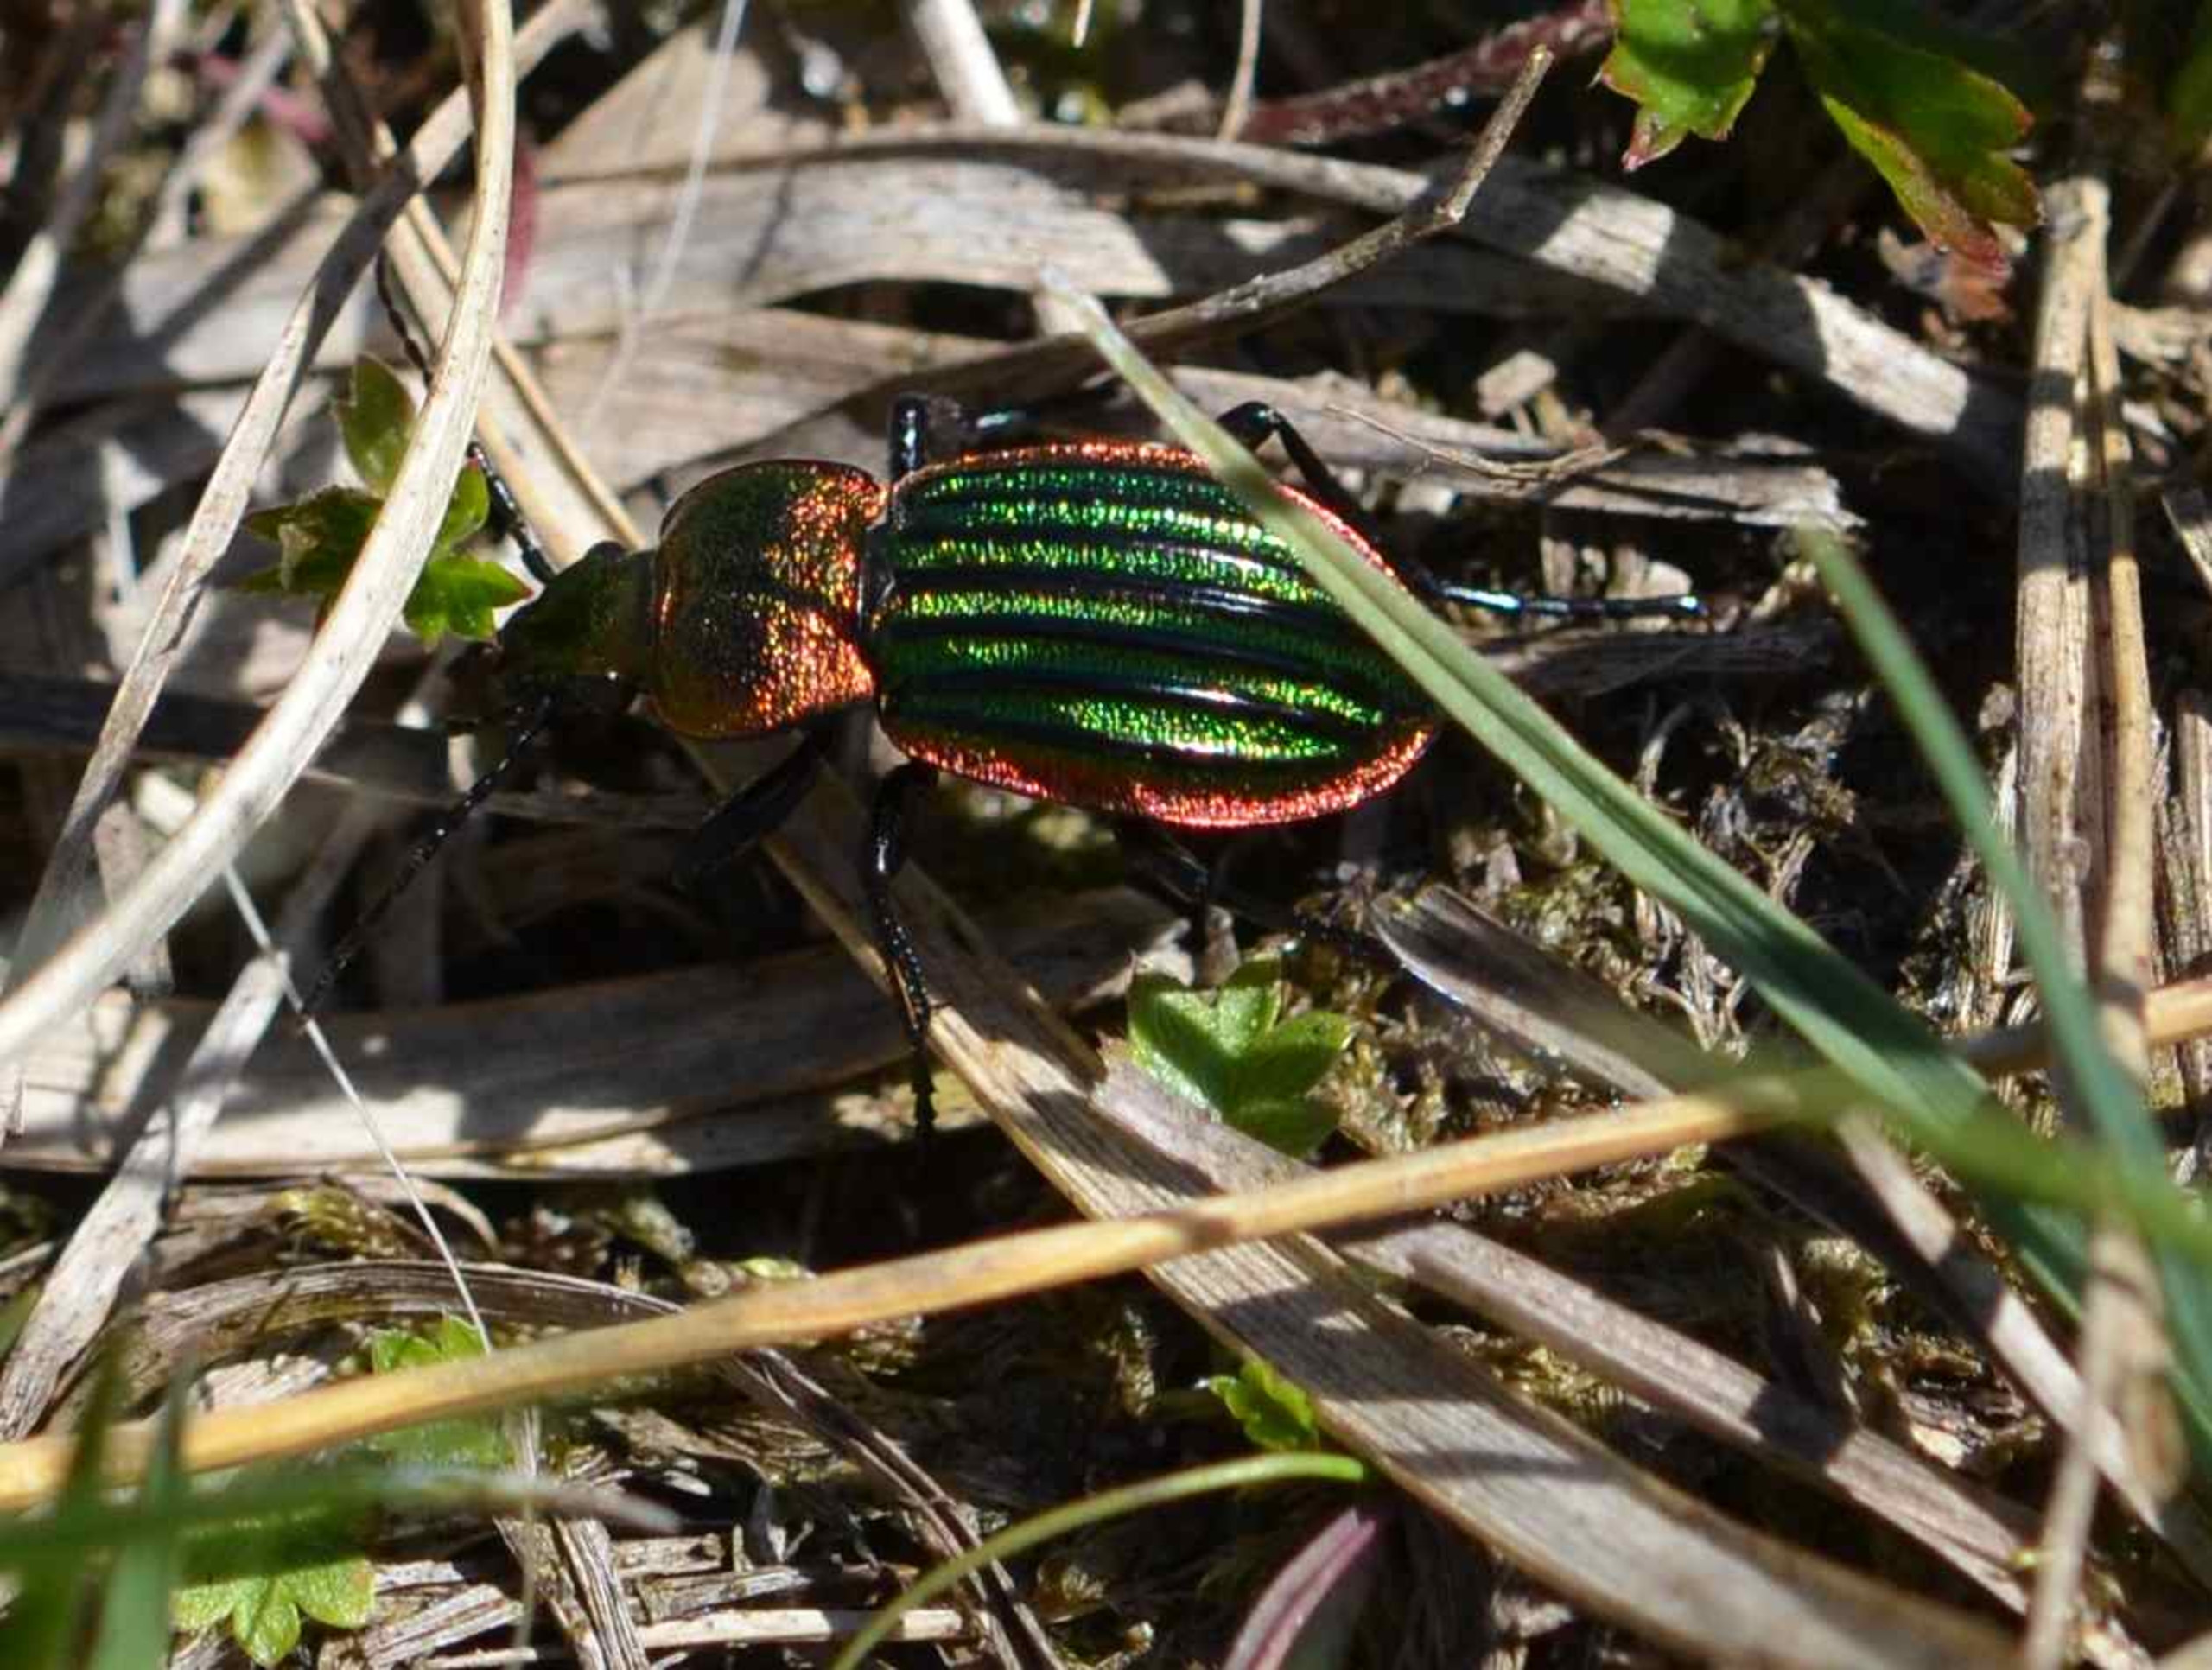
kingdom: Animalia
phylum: Arthropoda
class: Insecta
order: Coleoptera
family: Carabidae
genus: Carabus
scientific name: Carabus nitens
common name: Lille guldløber
